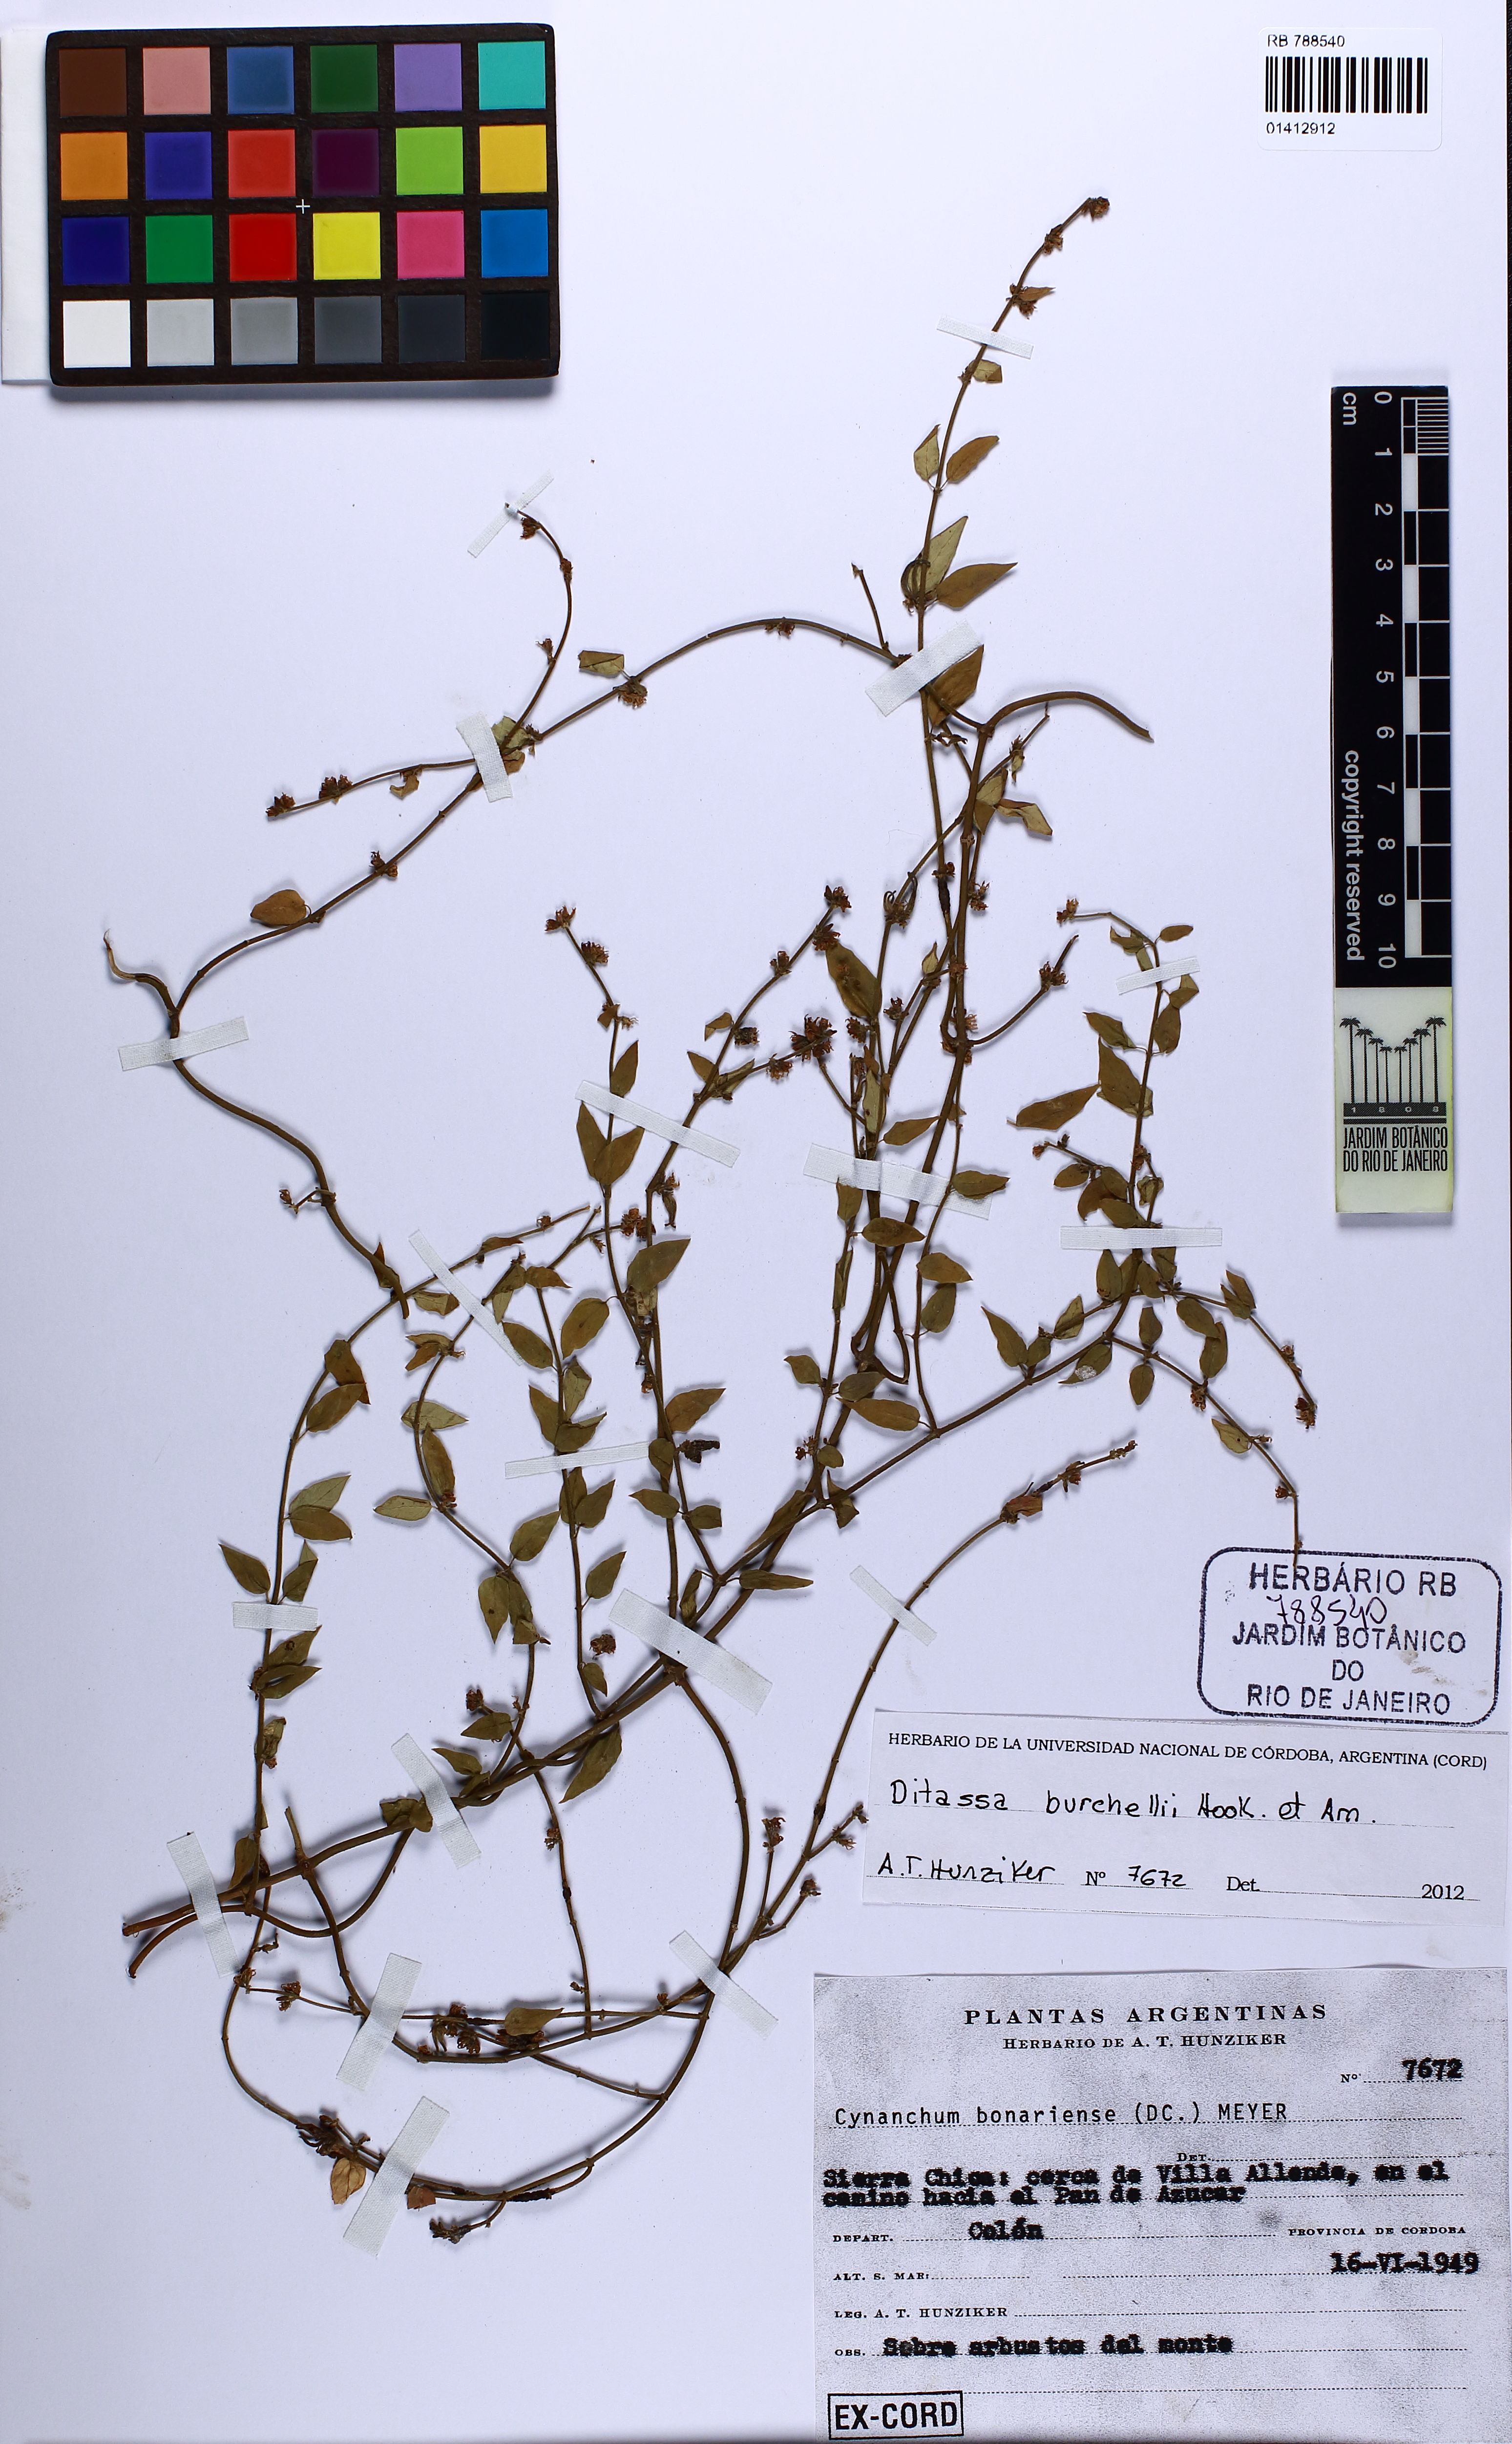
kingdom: Plantae
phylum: Tracheophyta
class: Magnoliopsida
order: Gentianales
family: Apocynaceae
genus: Metastelma
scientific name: Metastelma burchellii
